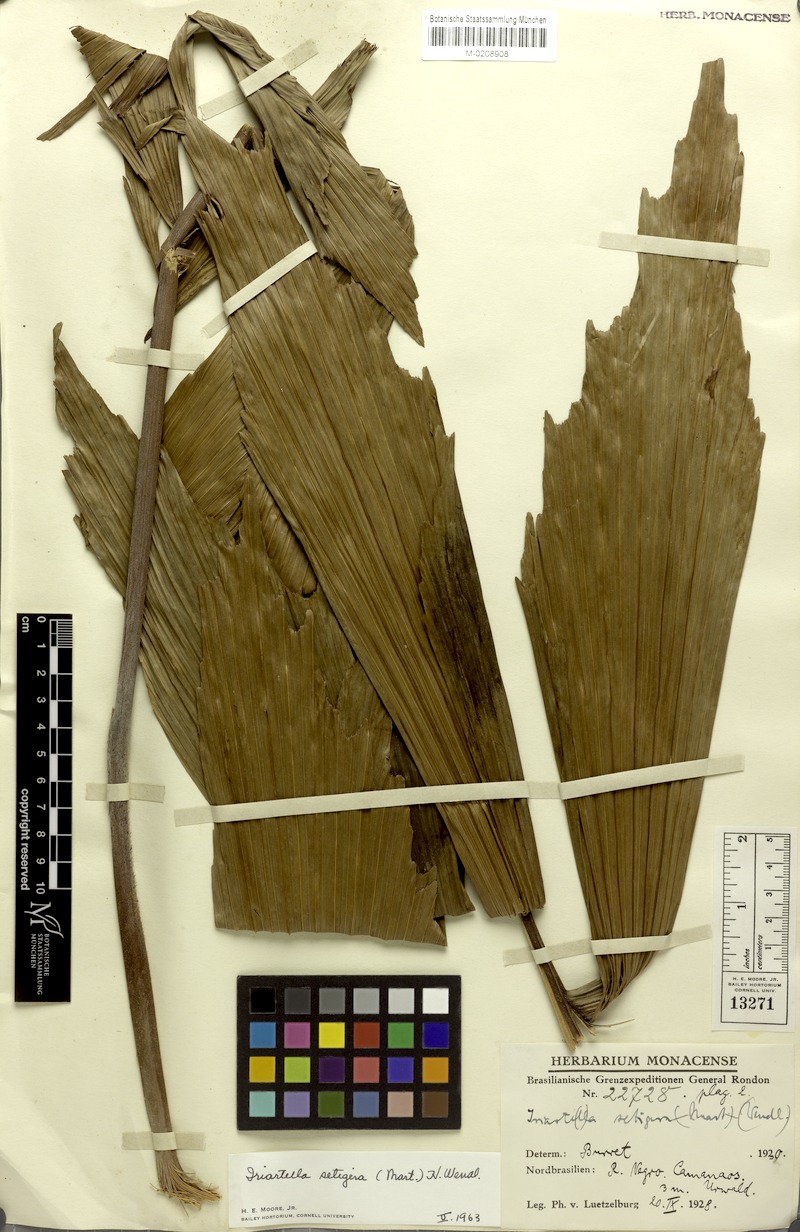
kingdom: Plantae
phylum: Tracheophyta
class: Liliopsida
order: Arecales
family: Arecaceae
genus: Iriartella
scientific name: Iriartella setigera
